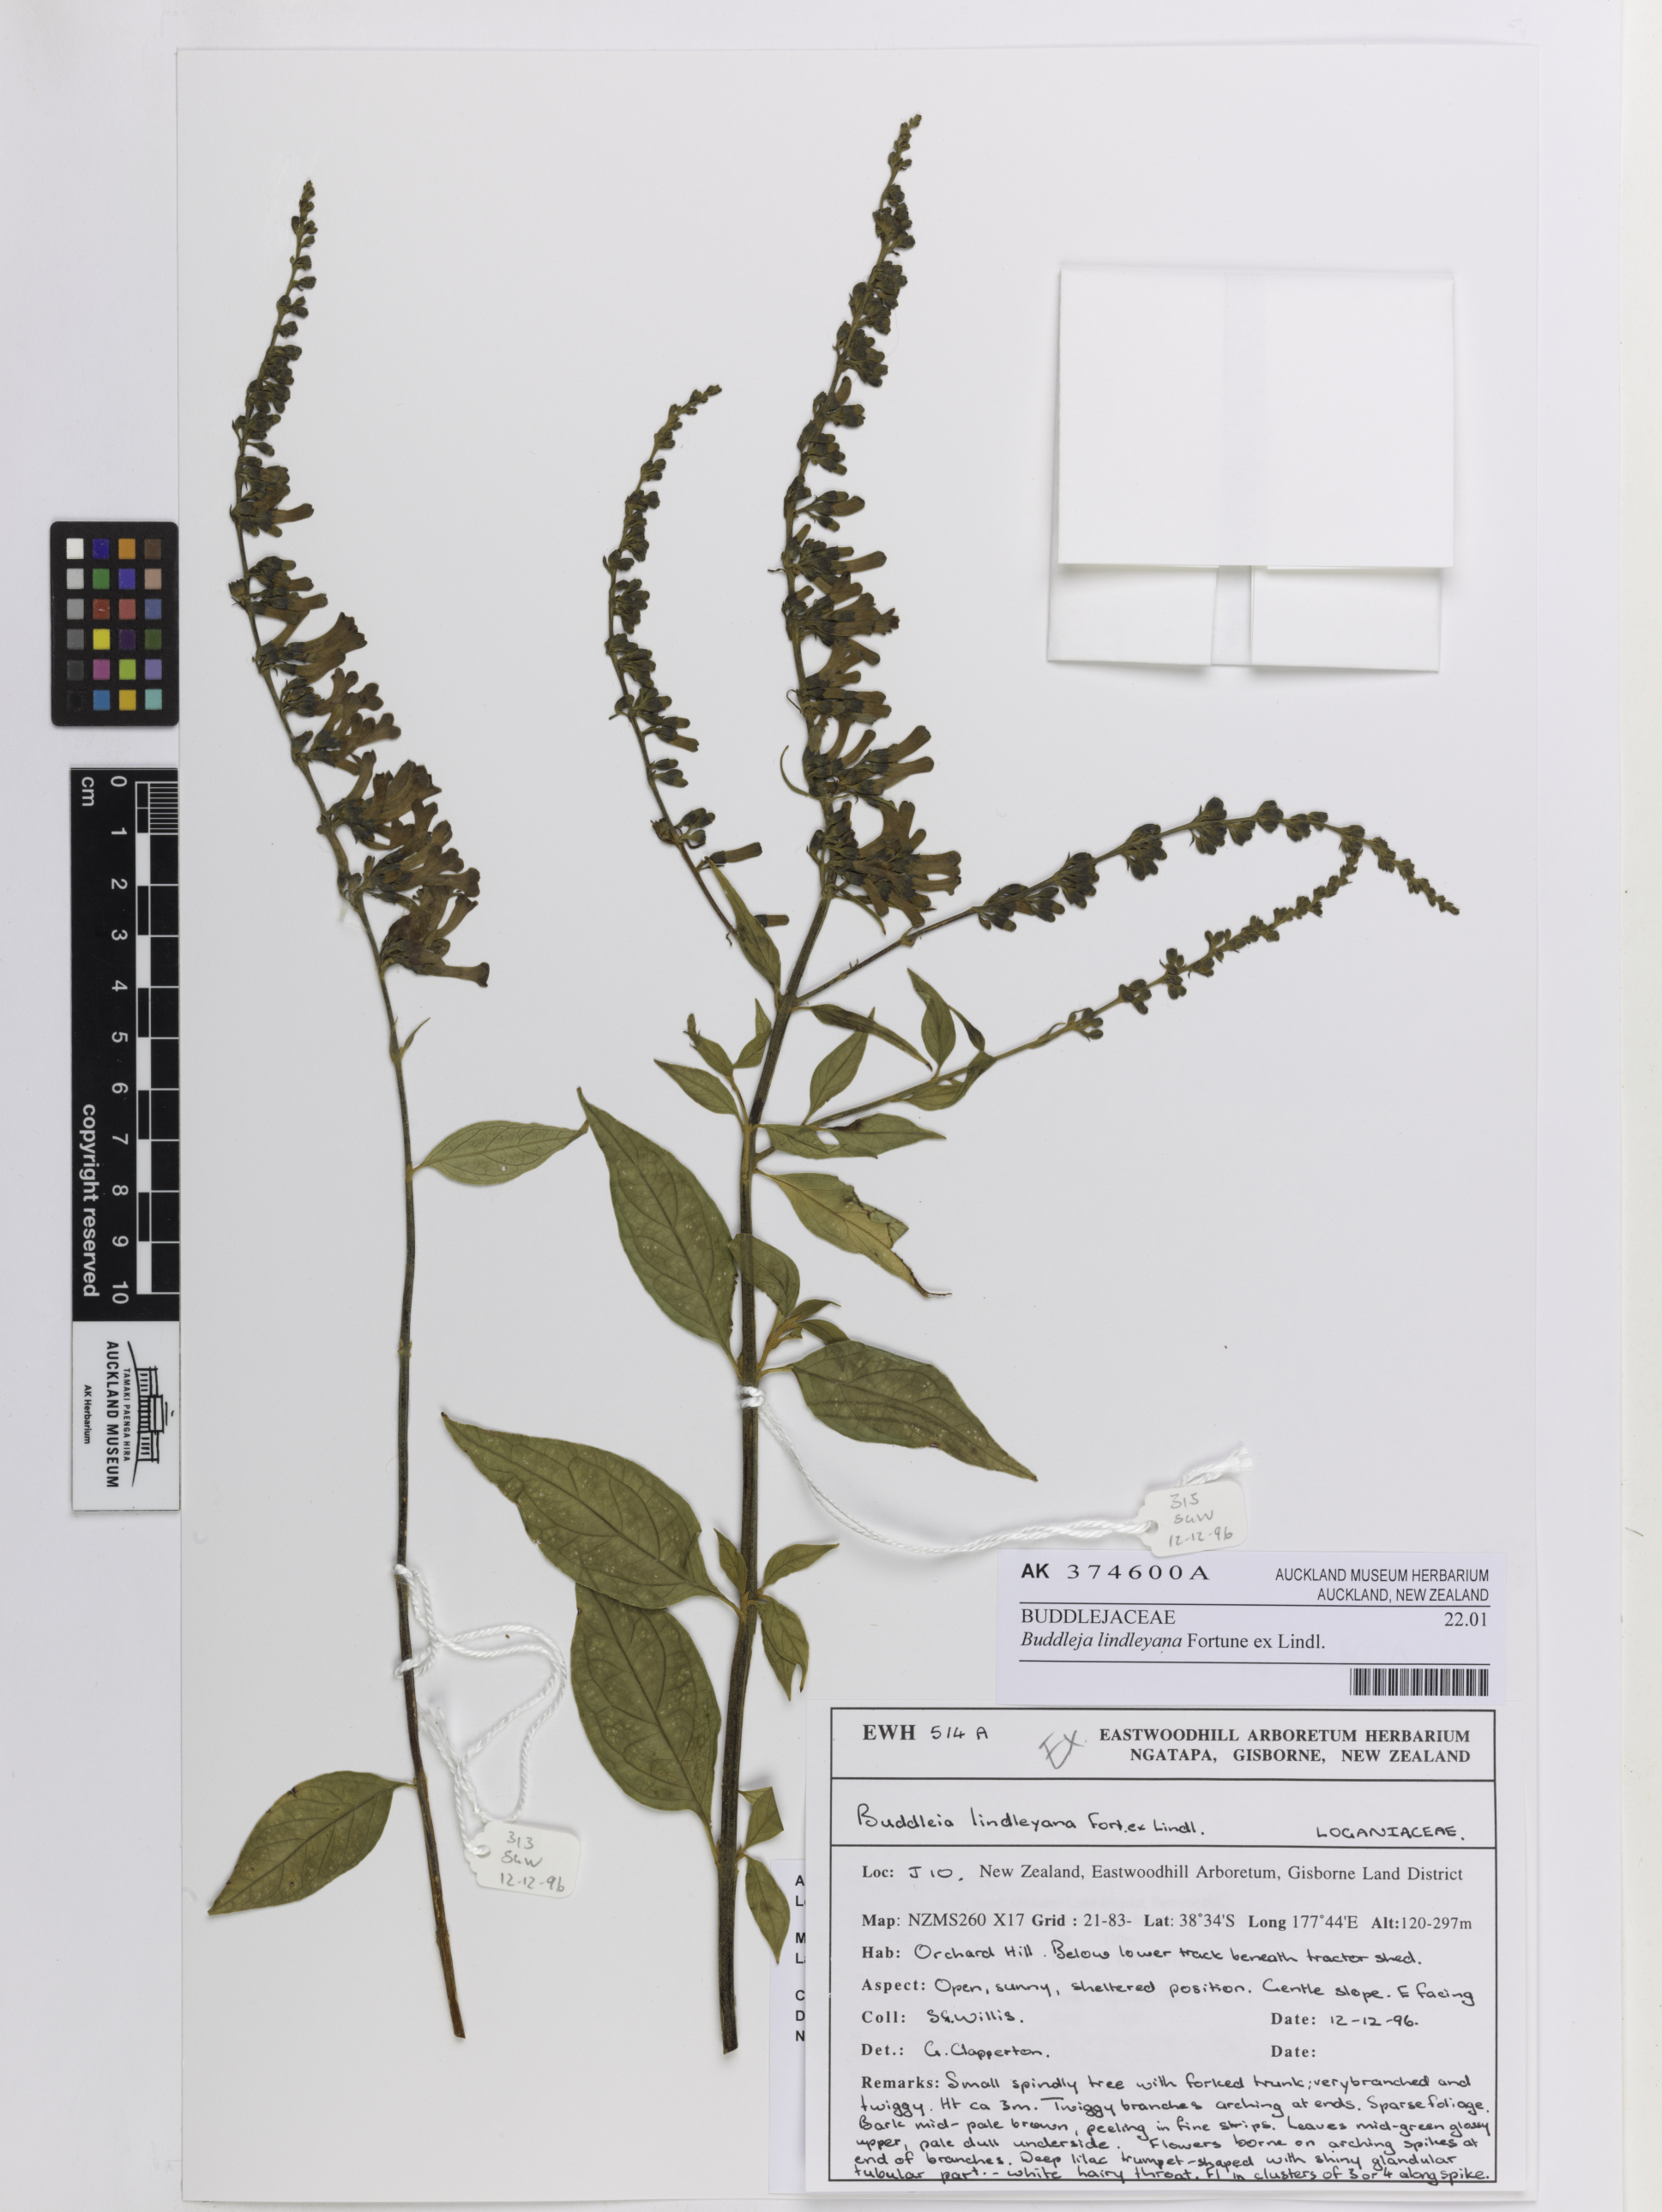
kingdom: Plantae
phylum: Tracheophyta
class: Magnoliopsida
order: Lamiales
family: Scrophulariaceae
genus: Buddleja
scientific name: Buddleja lindleyana
